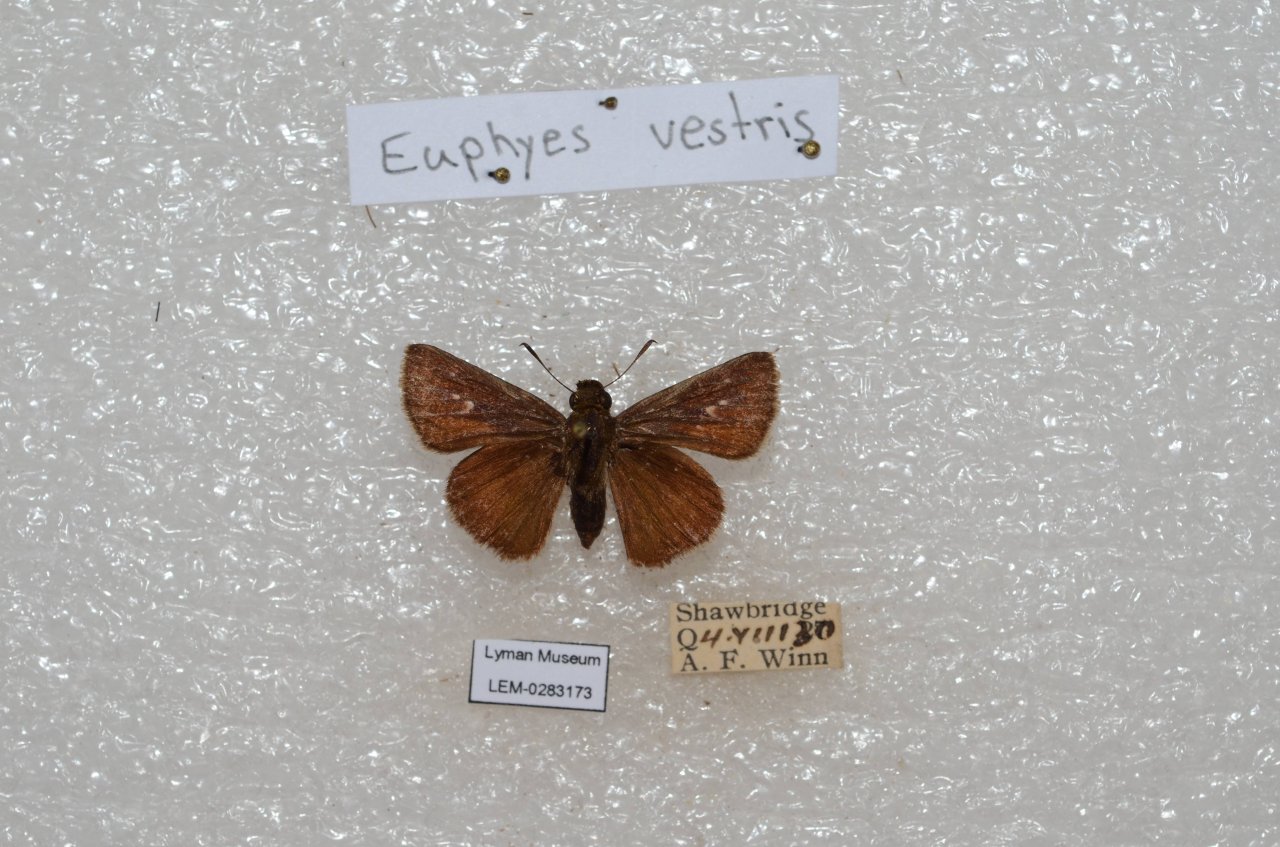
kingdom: Animalia
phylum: Arthropoda
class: Insecta
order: Lepidoptera
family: Hesperiidae
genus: Euphyes
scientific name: Euphyes vestris
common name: Dun Skipper
